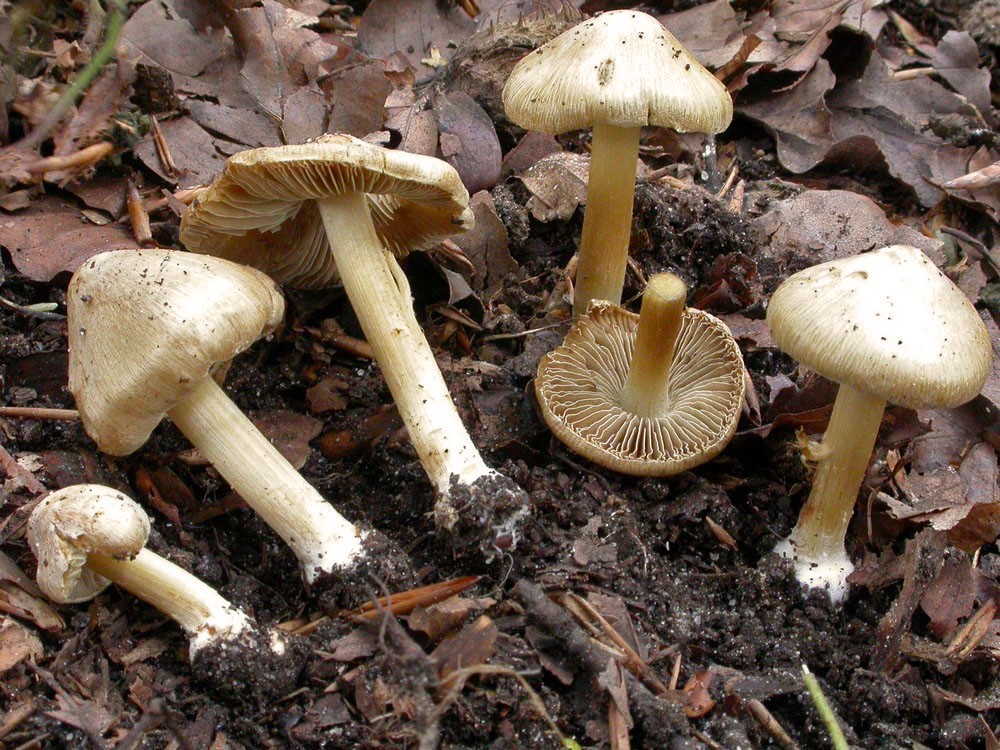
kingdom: Fungi
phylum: Basidiomycota
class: Agaricomycetes
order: Agaricales
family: Inocybaceae
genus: Inosperma
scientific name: Inosperma
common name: strågul trævlhat
